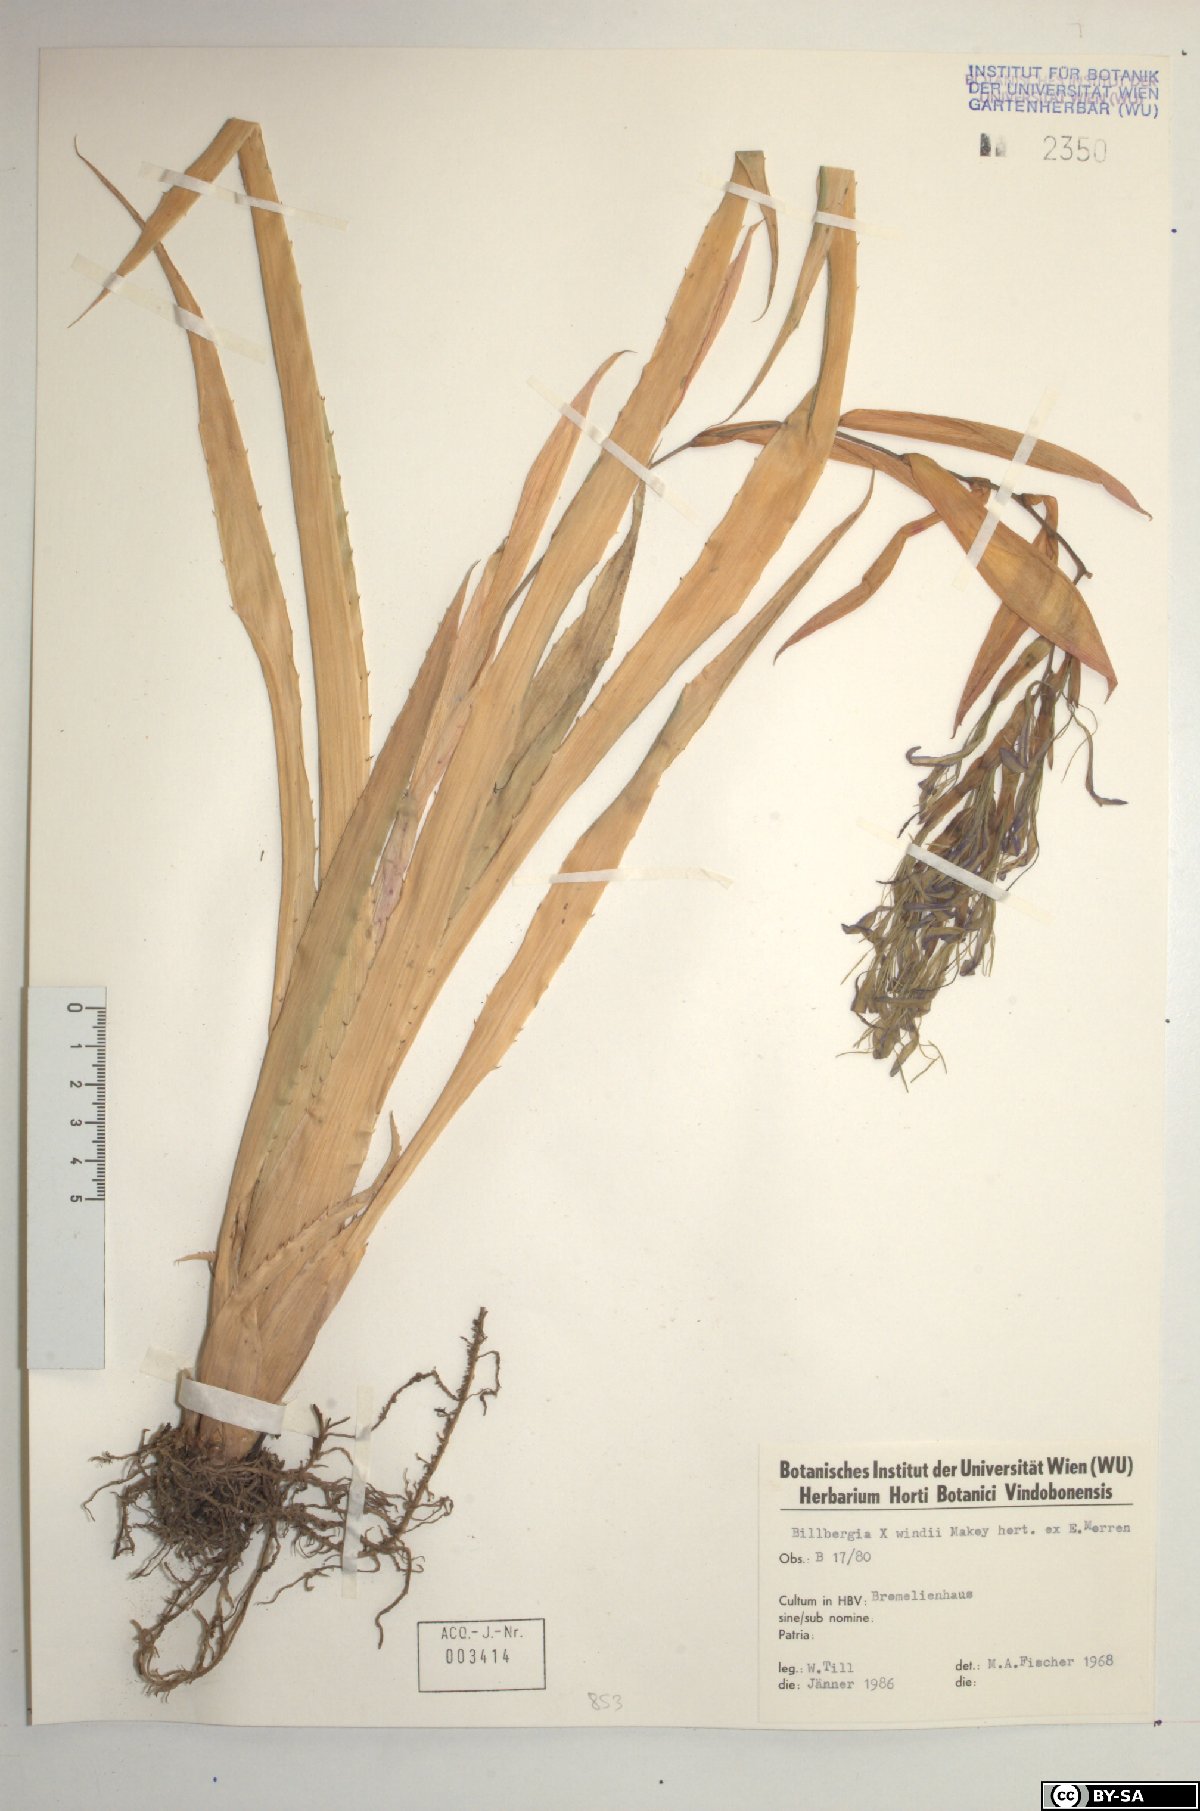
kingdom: Plantae
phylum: Tracheophyta
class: Liliopsida
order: Poales
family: Bromeliaceae
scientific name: Bromeliaceae
